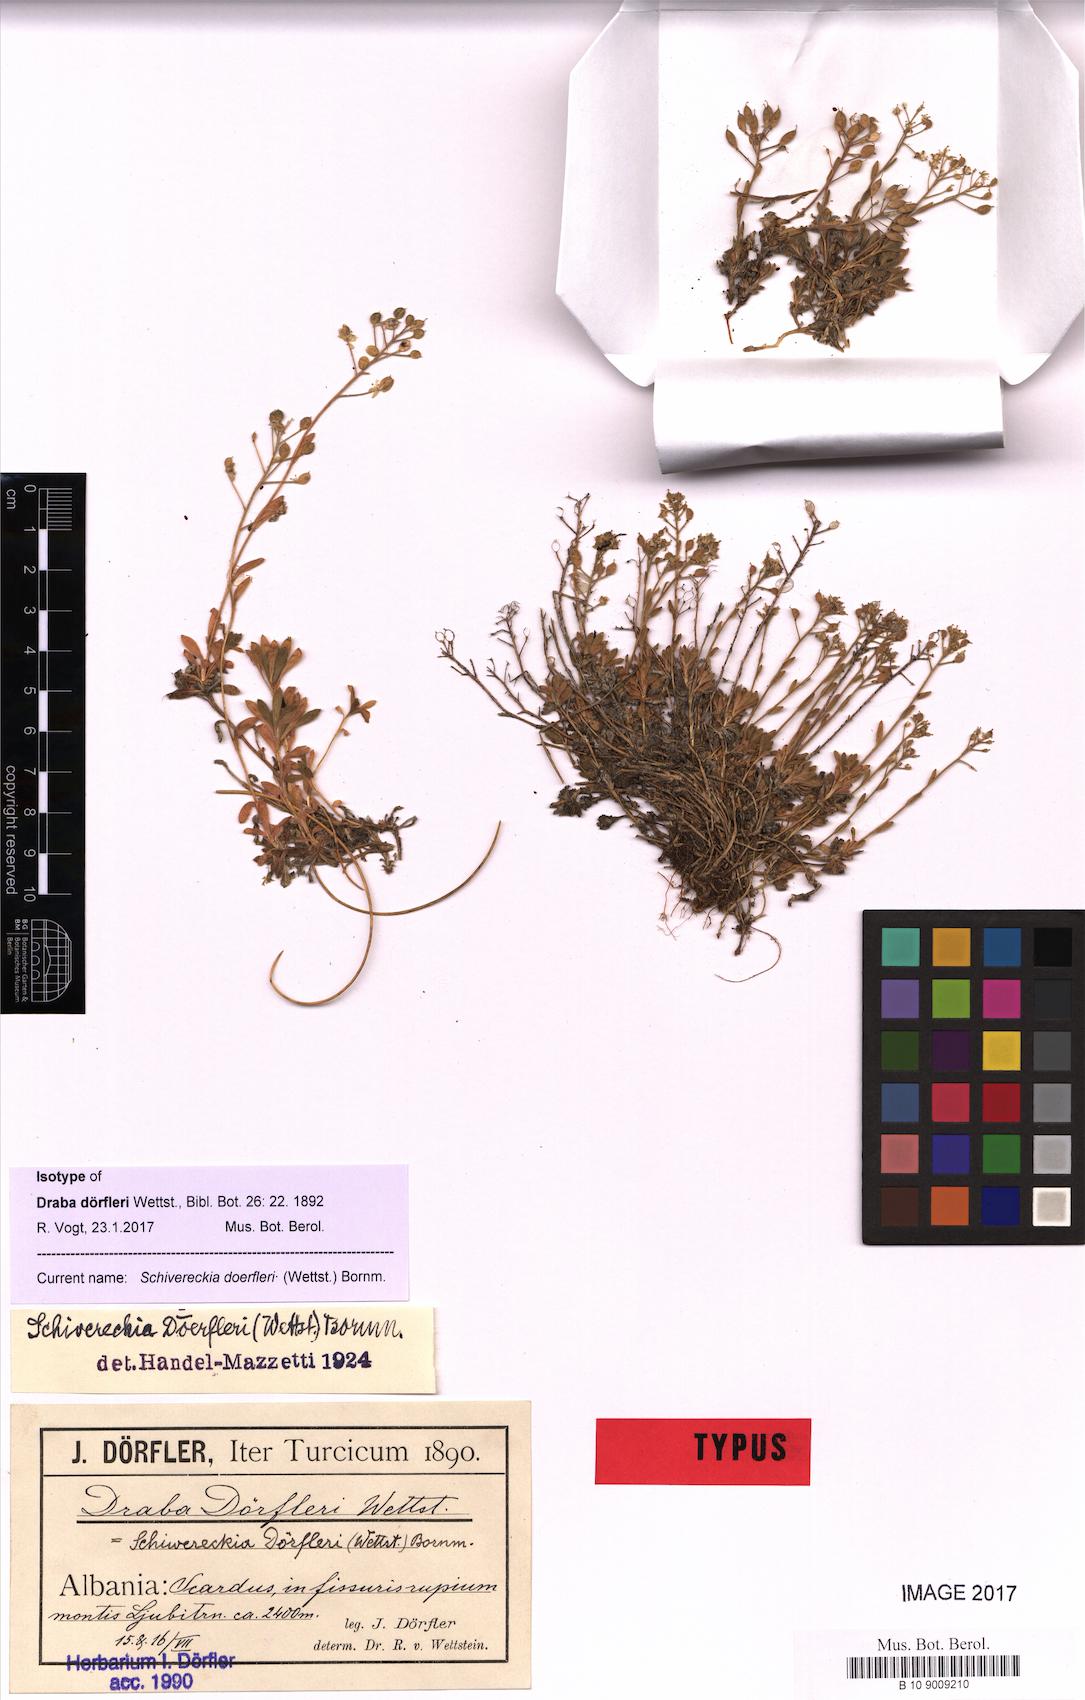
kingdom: Plantae
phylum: Tracheophyta
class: Magnoliopsida
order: Brassicales
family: Brassicaceae
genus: Draba
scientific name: Draba doerfleri
